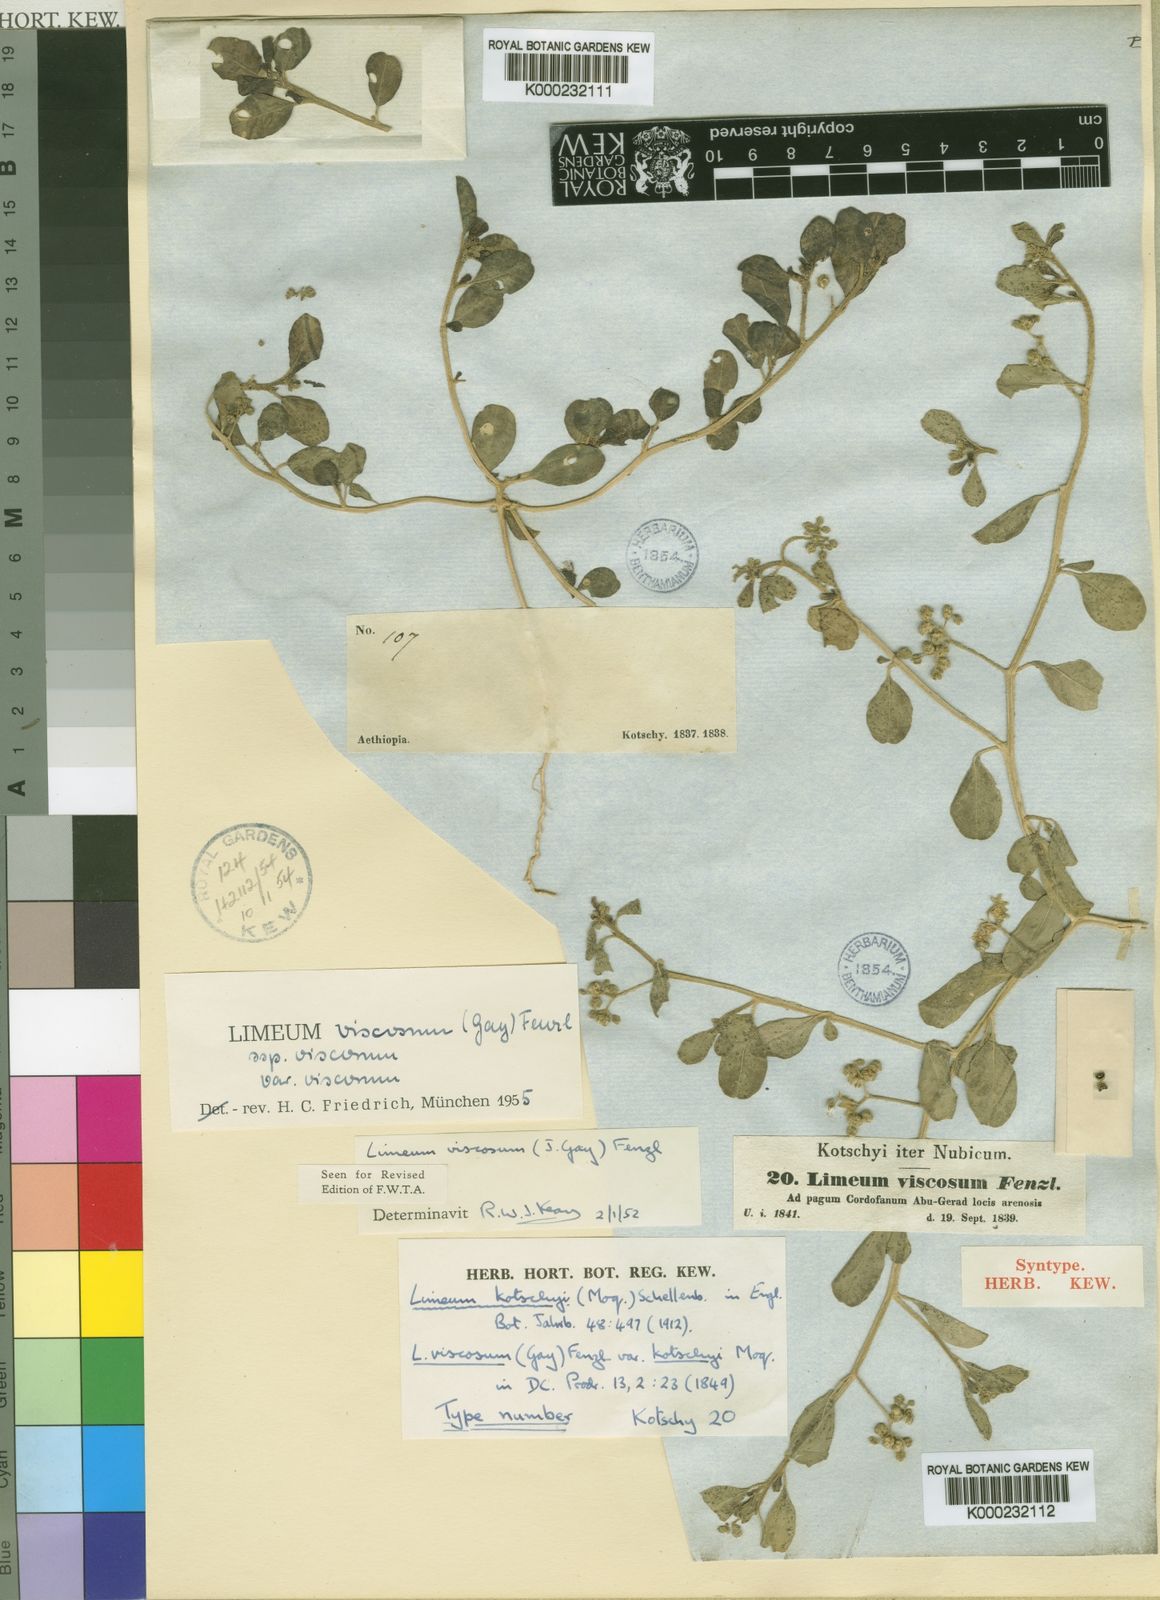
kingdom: Plantae
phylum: Tracheophyta
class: Magnoliopsida
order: Caryophyllales
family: Limeaceae
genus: Limeum
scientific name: Limeum
